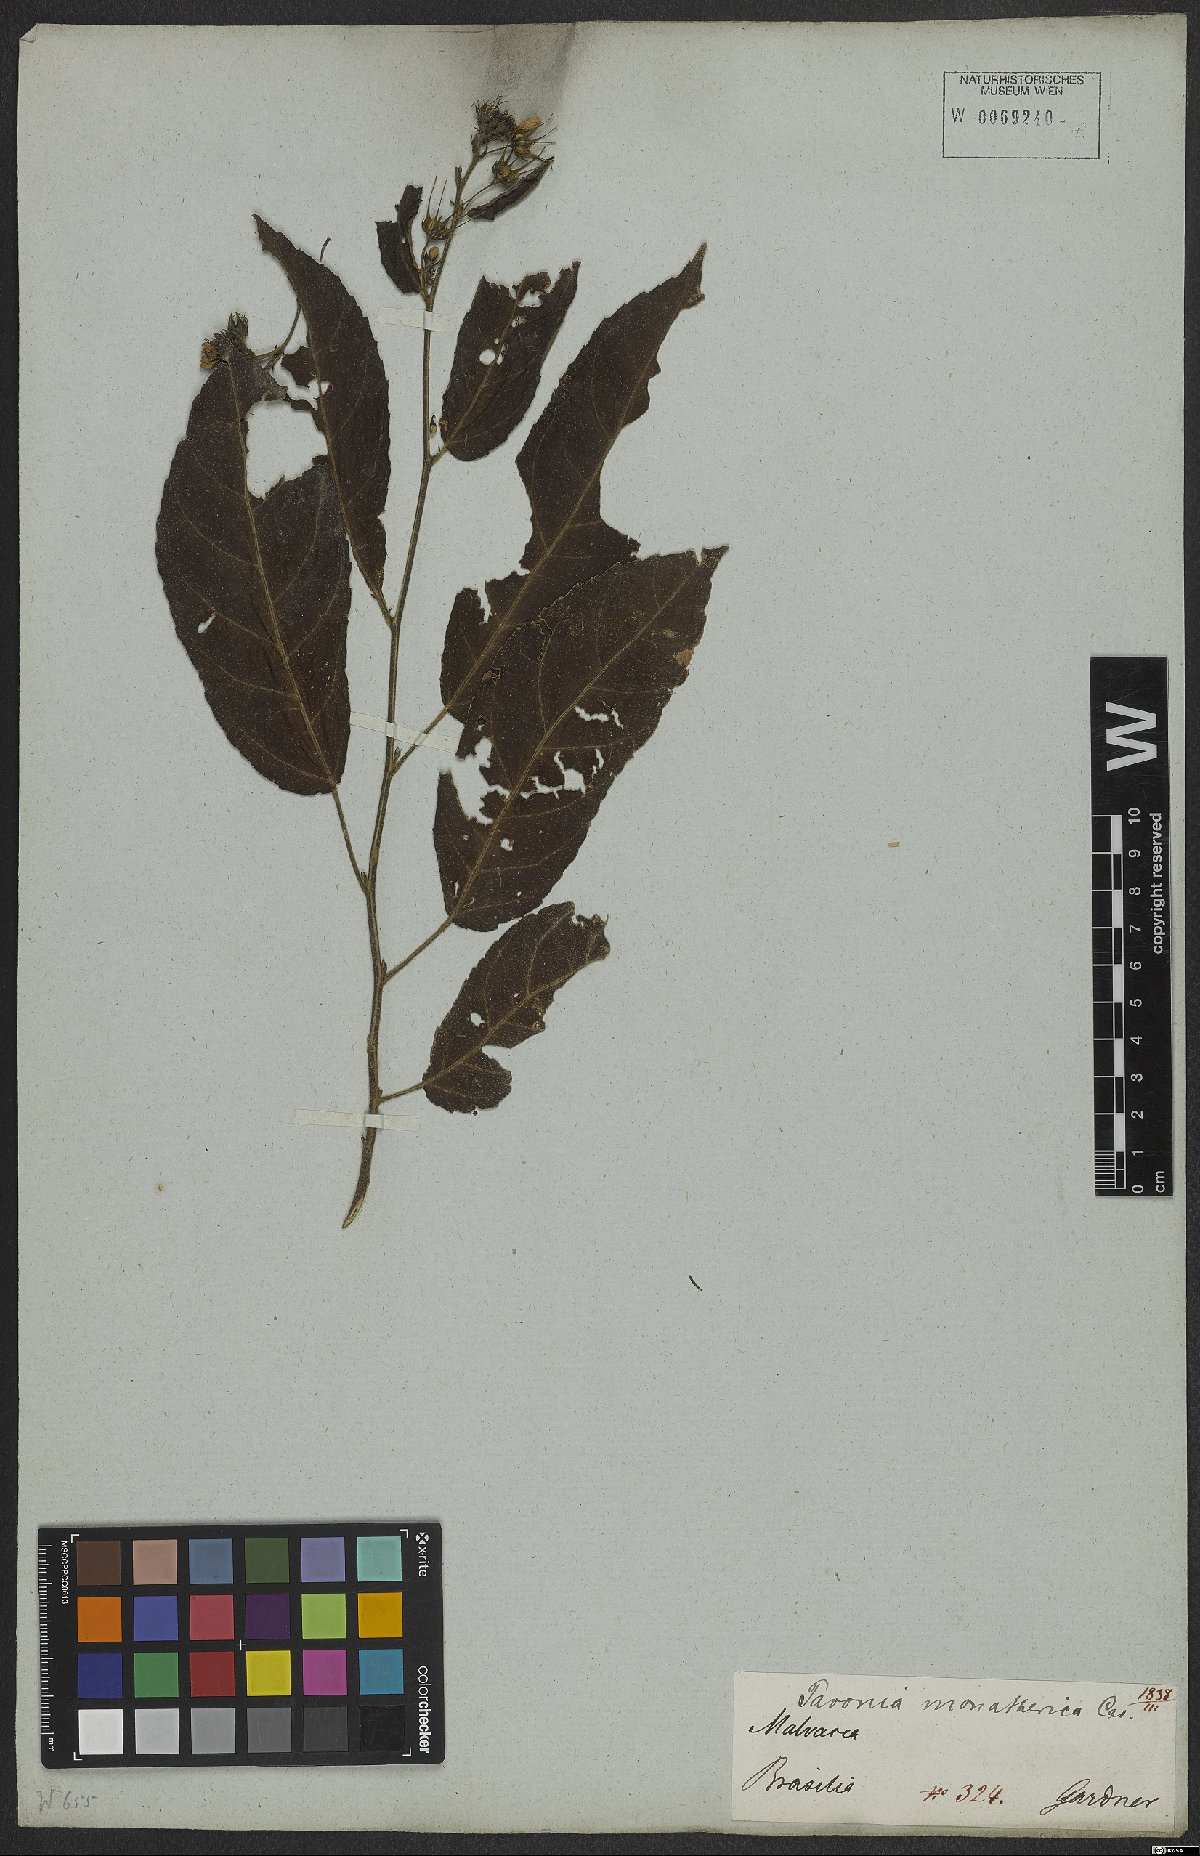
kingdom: Plantae
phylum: Tracheophyta
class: Magnoliopsida
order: Malvales
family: Malvaceae
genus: Pavonia
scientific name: Pavonia fruticosa
